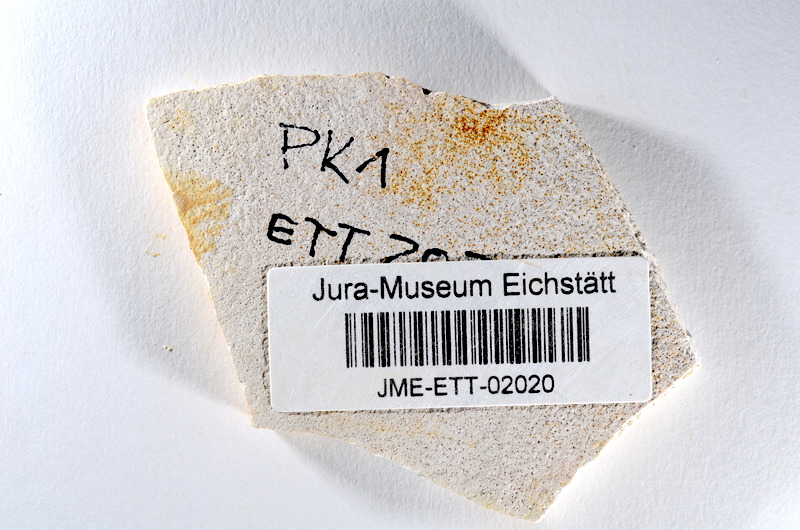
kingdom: Animalia
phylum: Chordata
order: Salmoniformes
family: Orthogonikleithridae
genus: Orthogonikleithrus
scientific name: Orthogonikleithrus hoelli
